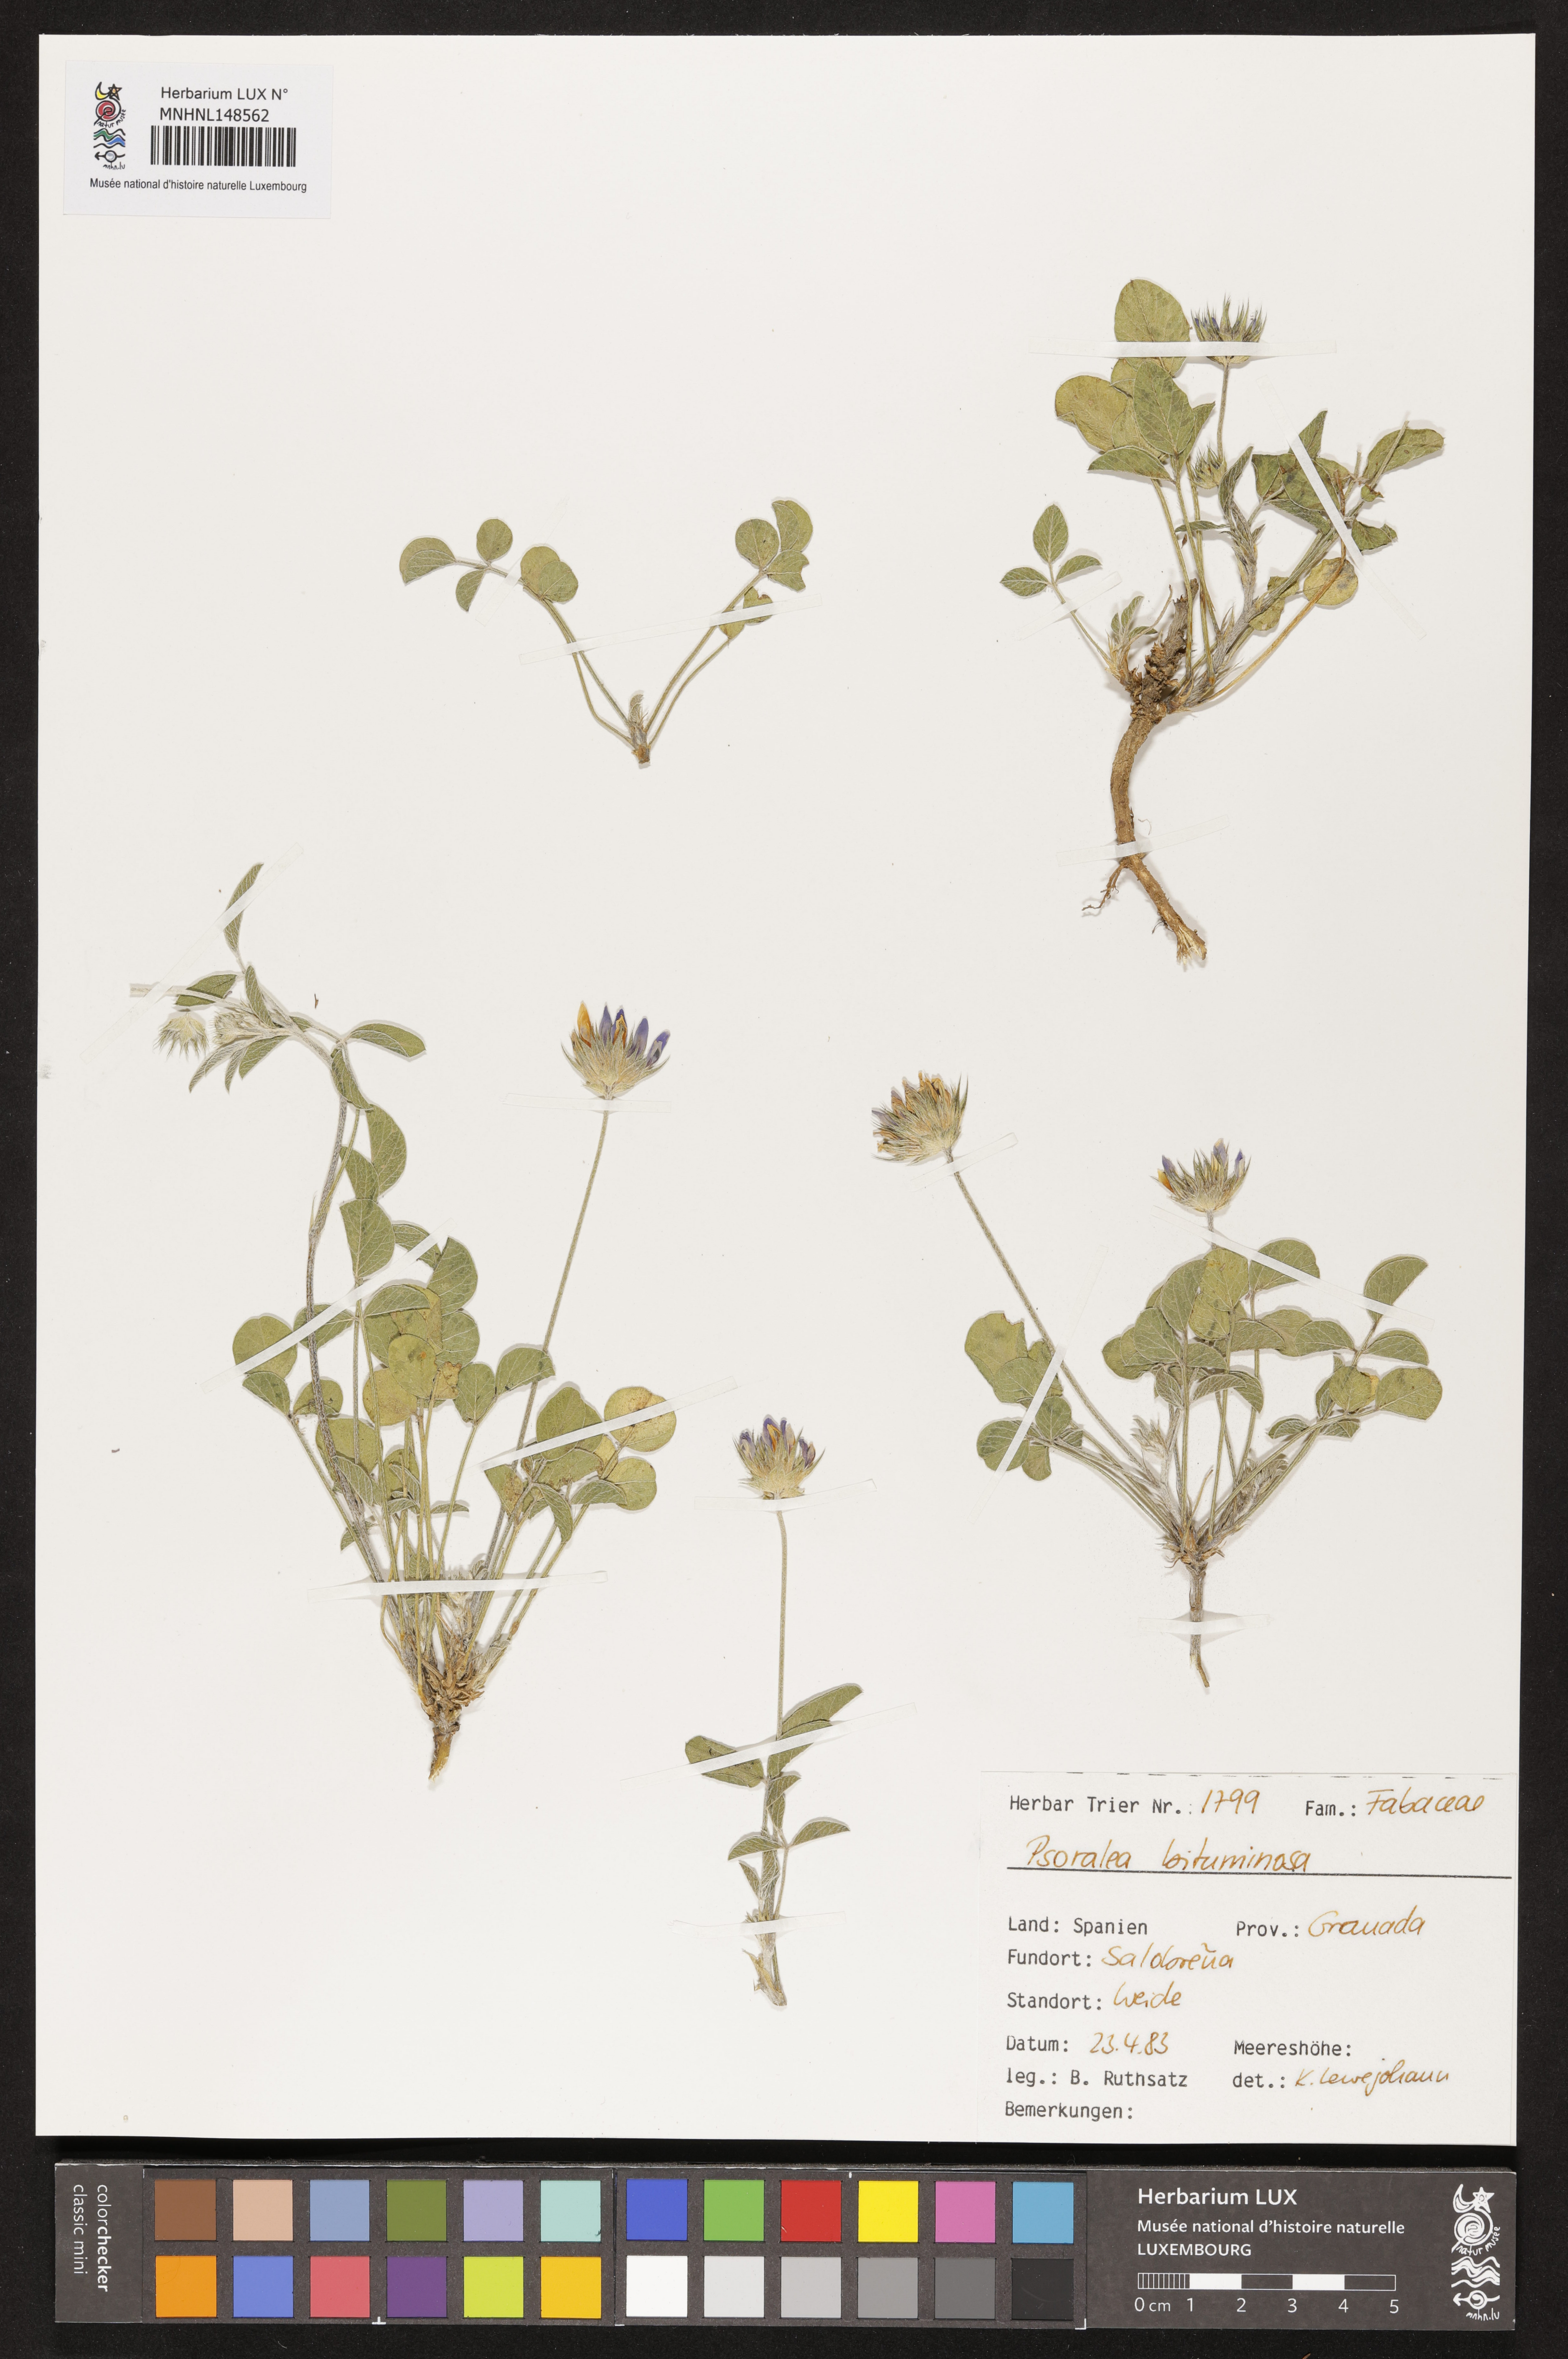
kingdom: Plantae
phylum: Tracheophyta
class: Magnoliopsida
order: Fabales
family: Fabaceae
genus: Bituminaria
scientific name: Bituminaria bituminosa
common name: Arabian pea
